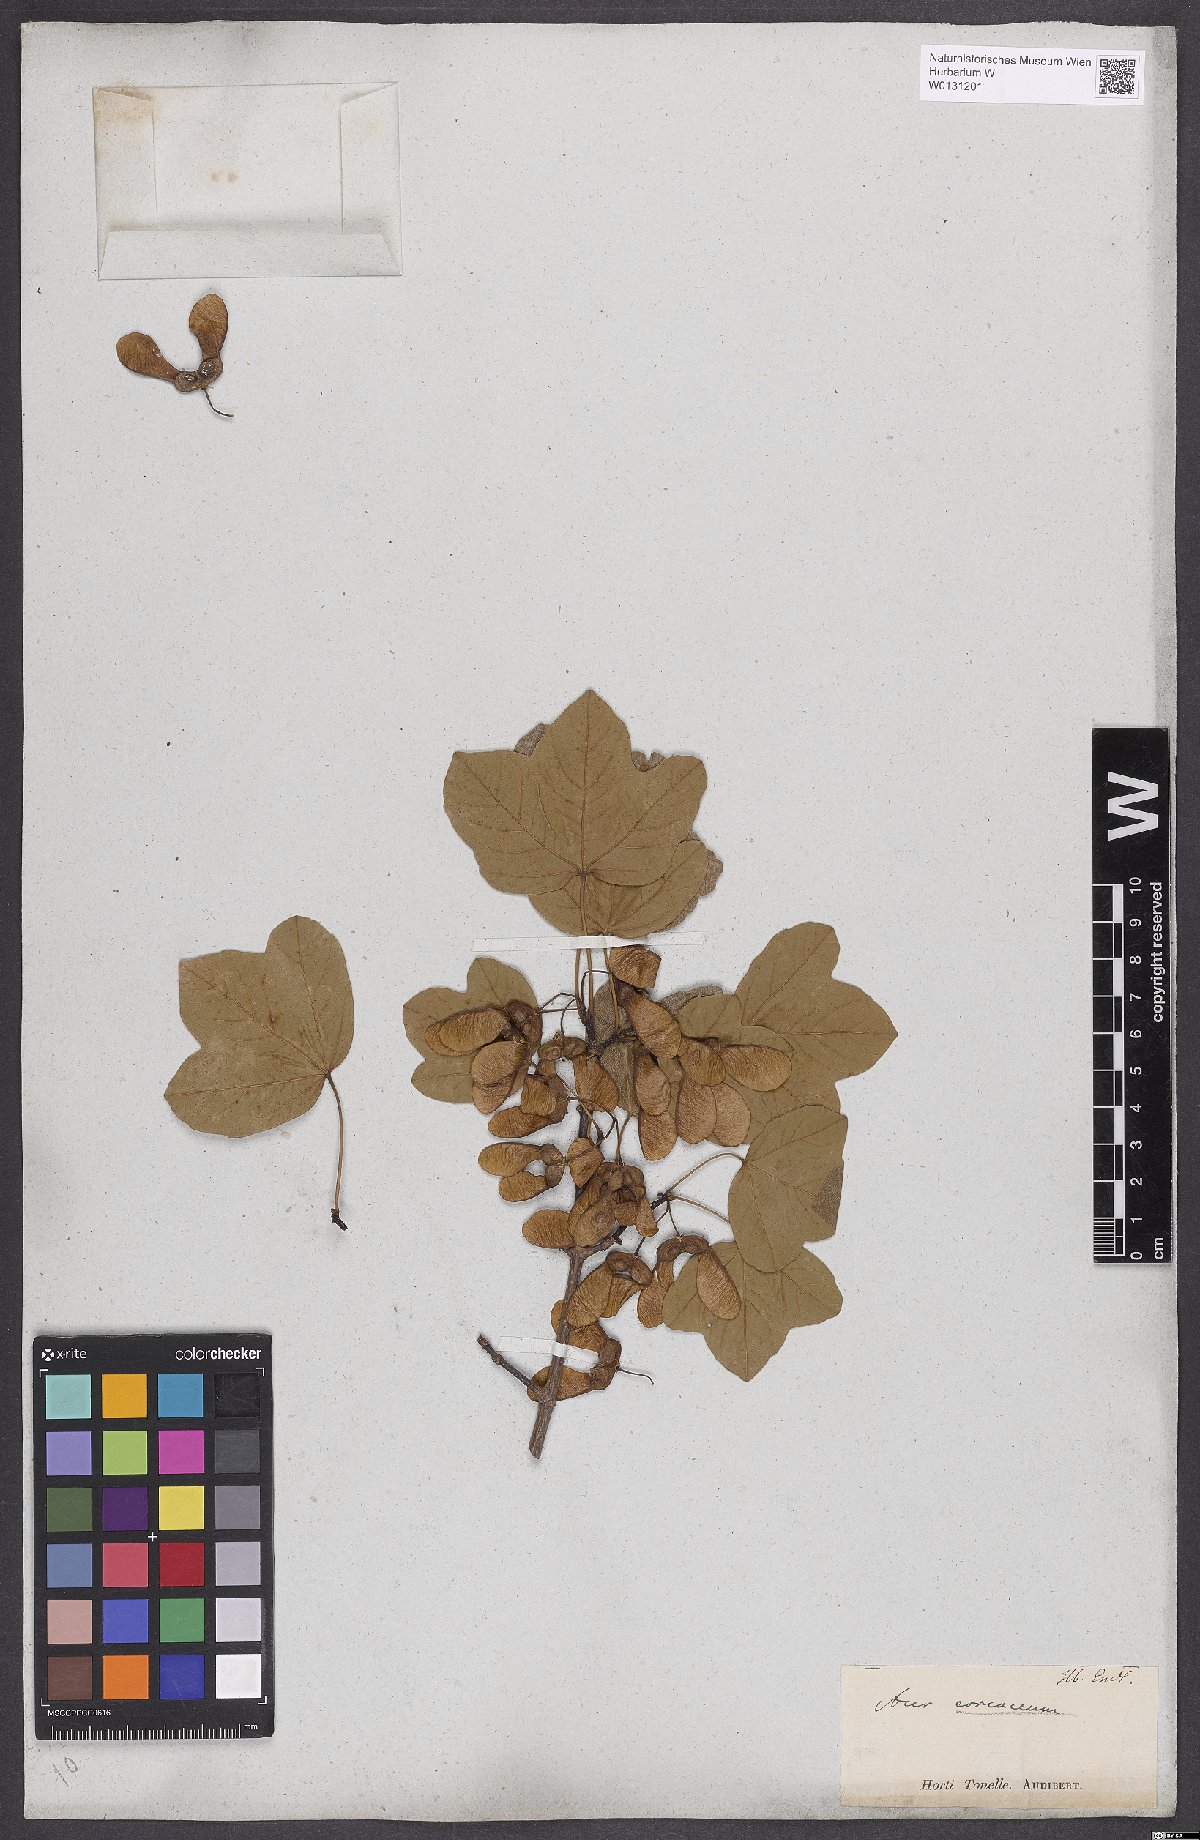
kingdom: Plantae
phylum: Tracheophyta
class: Magnoliopsida
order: Sapindales
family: Aceraceae
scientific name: Aceraceae
